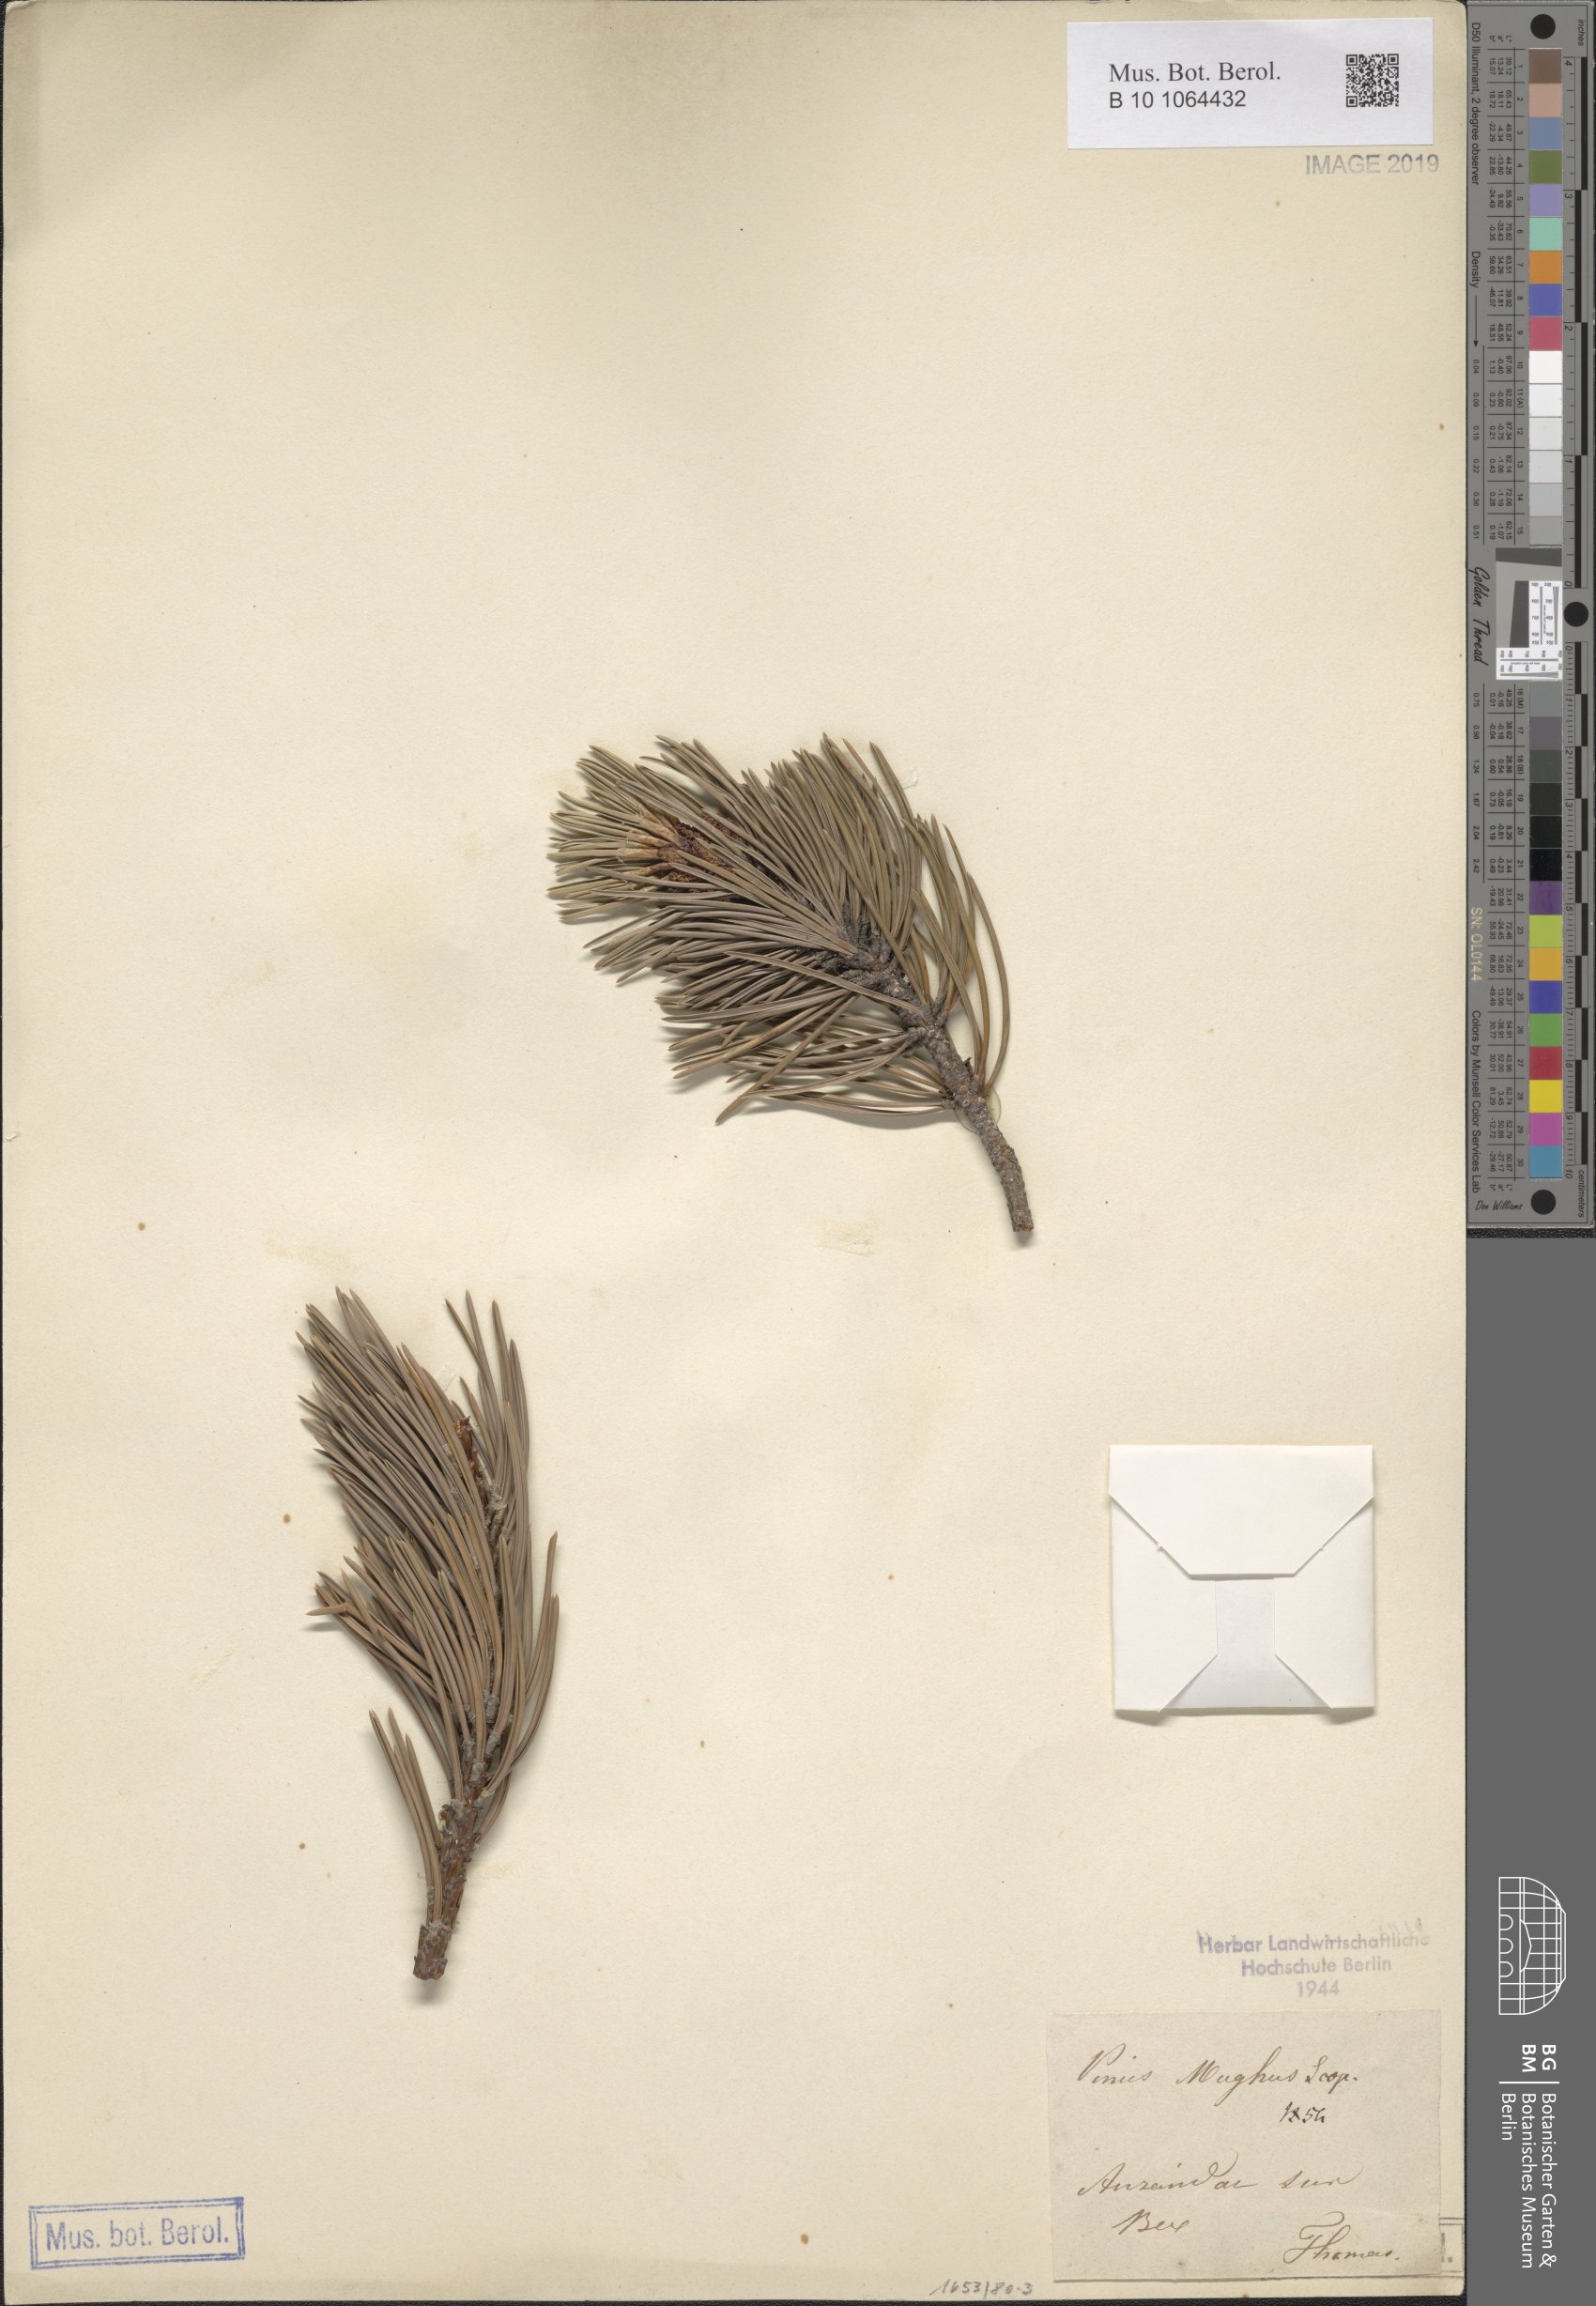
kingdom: Plantae
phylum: Tracheophyta
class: Pinopsida
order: Pinales
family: Pinaceae
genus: Pinus
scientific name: Pinus mugo
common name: Mugo pine
